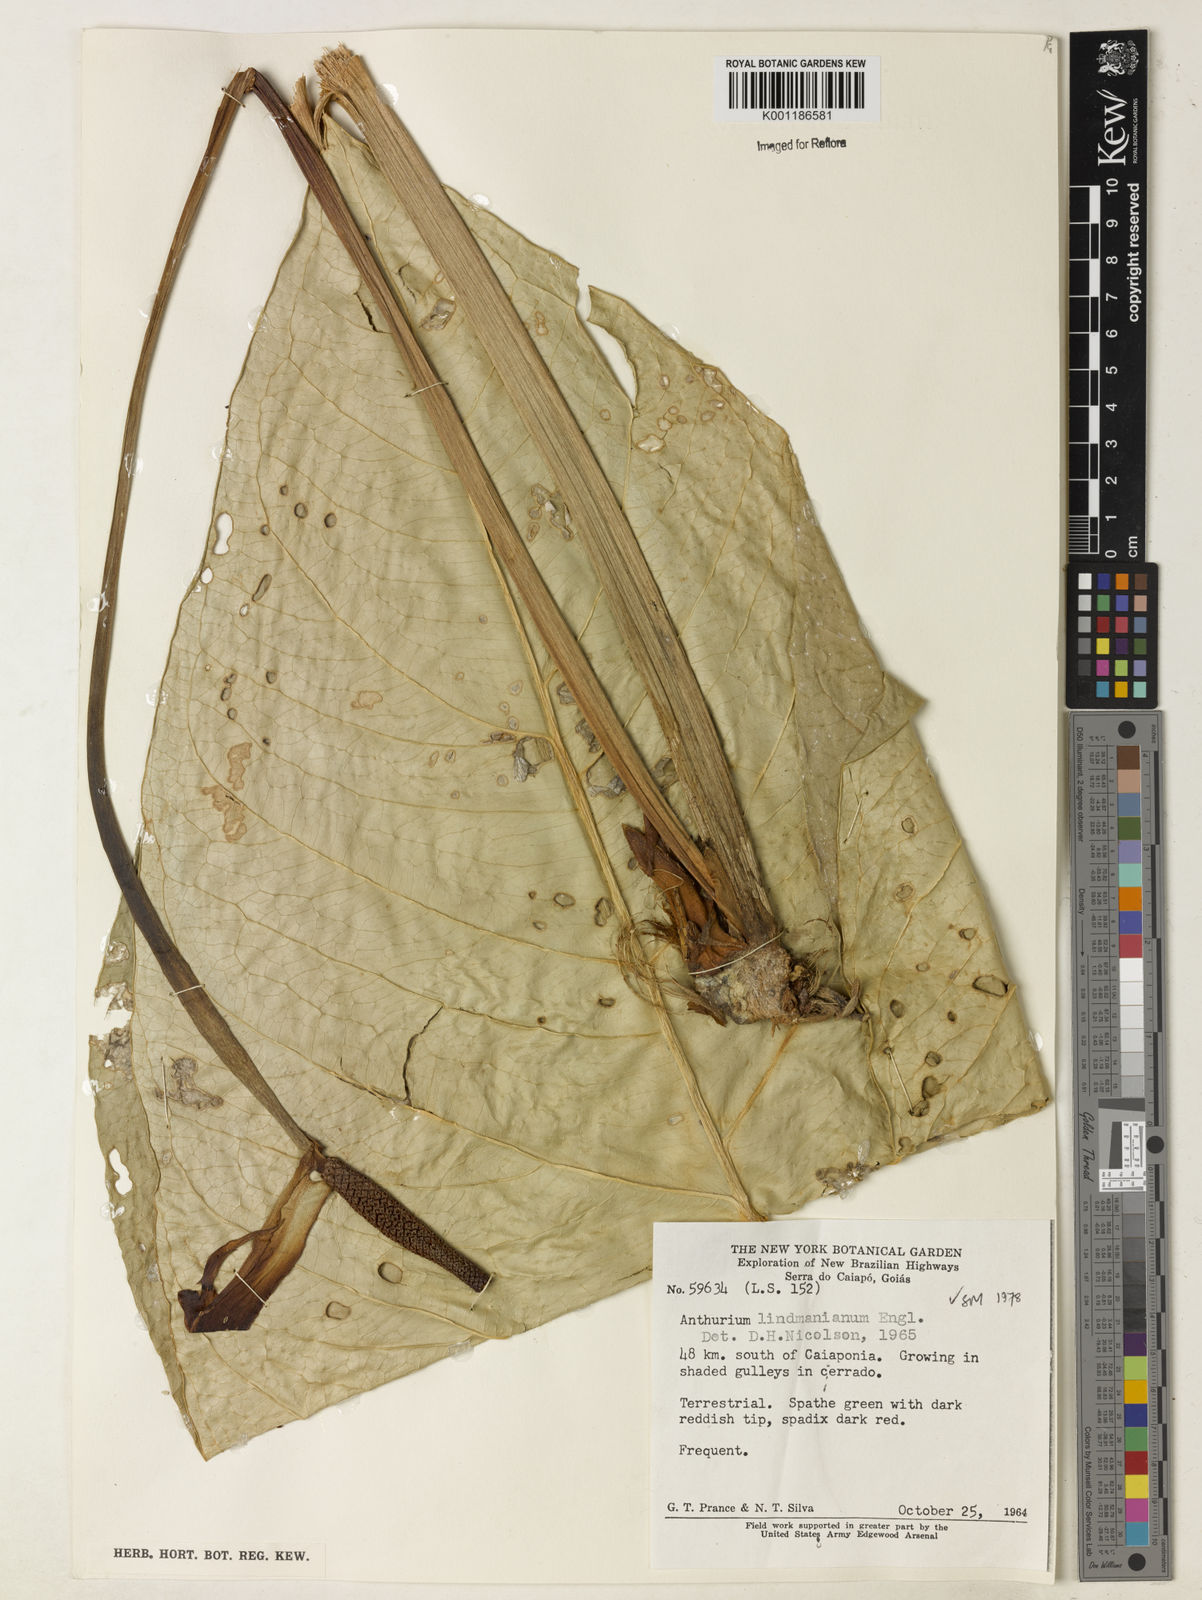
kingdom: Plantae
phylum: Tracheophyta
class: Liliopsida
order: Alismatales
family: Araceae
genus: Anthurium
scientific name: Anthurium lindmanianum
